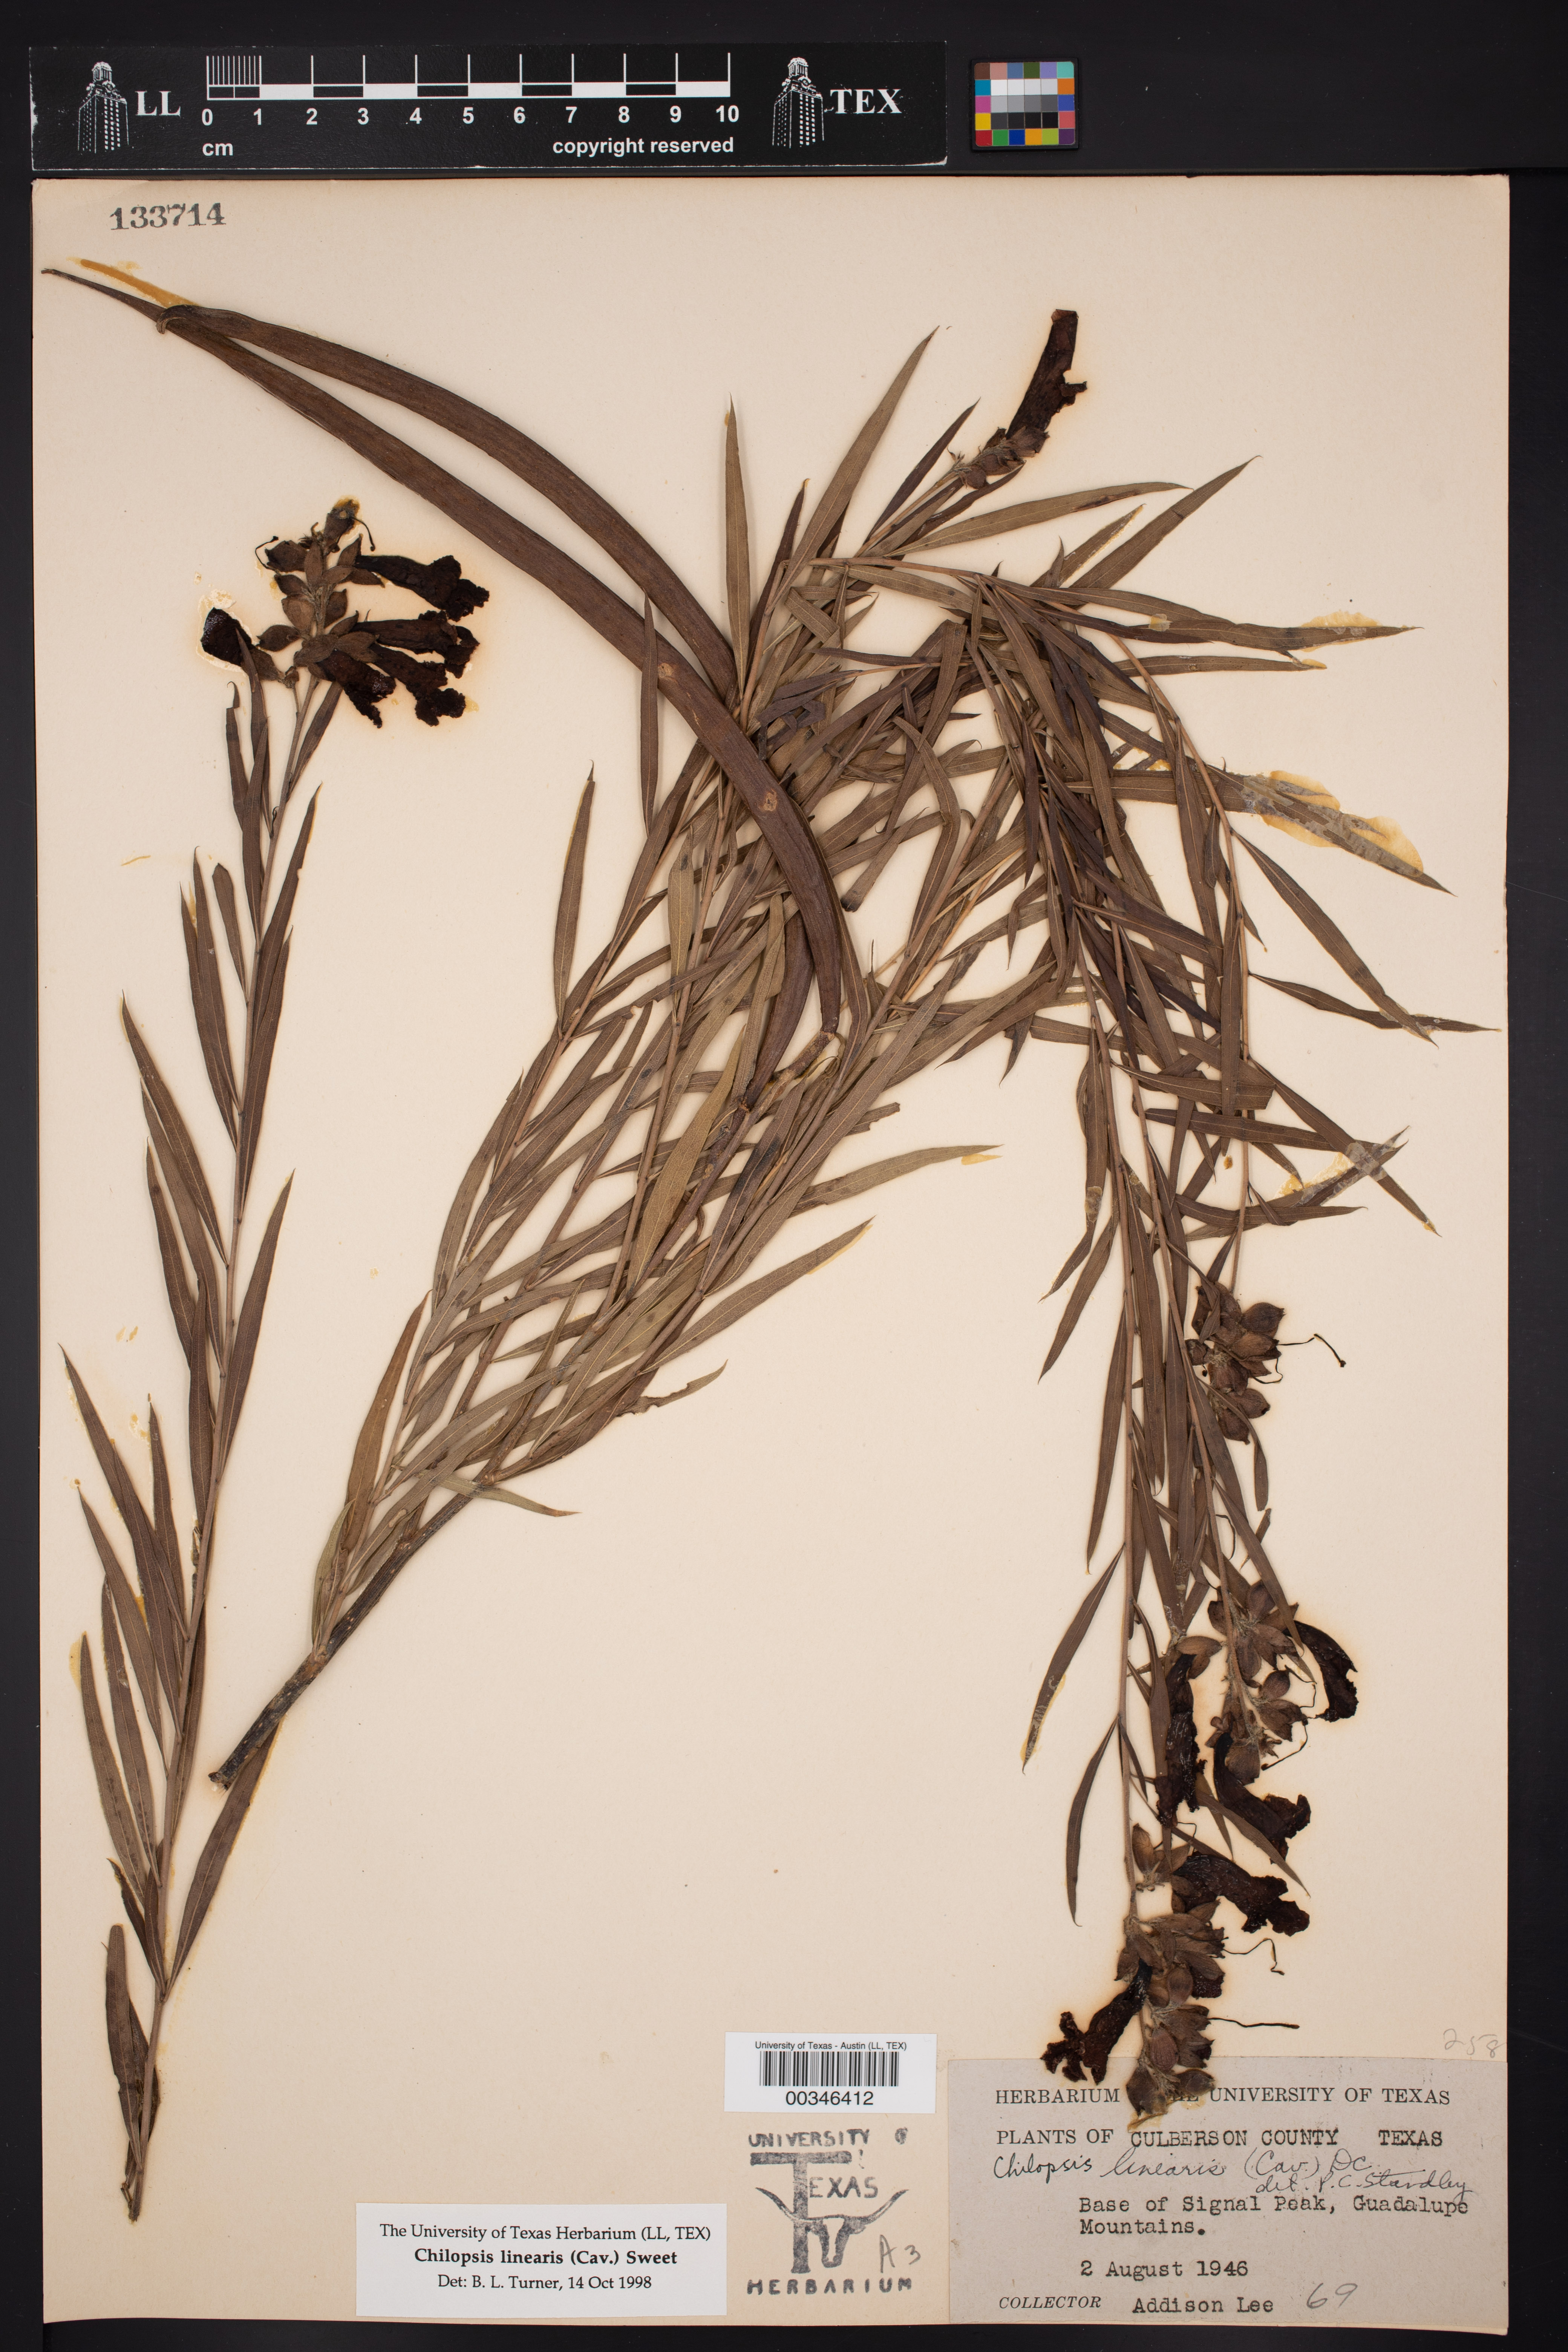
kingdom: Plantae
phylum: Tracheophyta
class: Magnoliopsida
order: Lamiales
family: Bignoniaceae
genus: Chilopsis
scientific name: Chilopsis linearis
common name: Desert-willow
